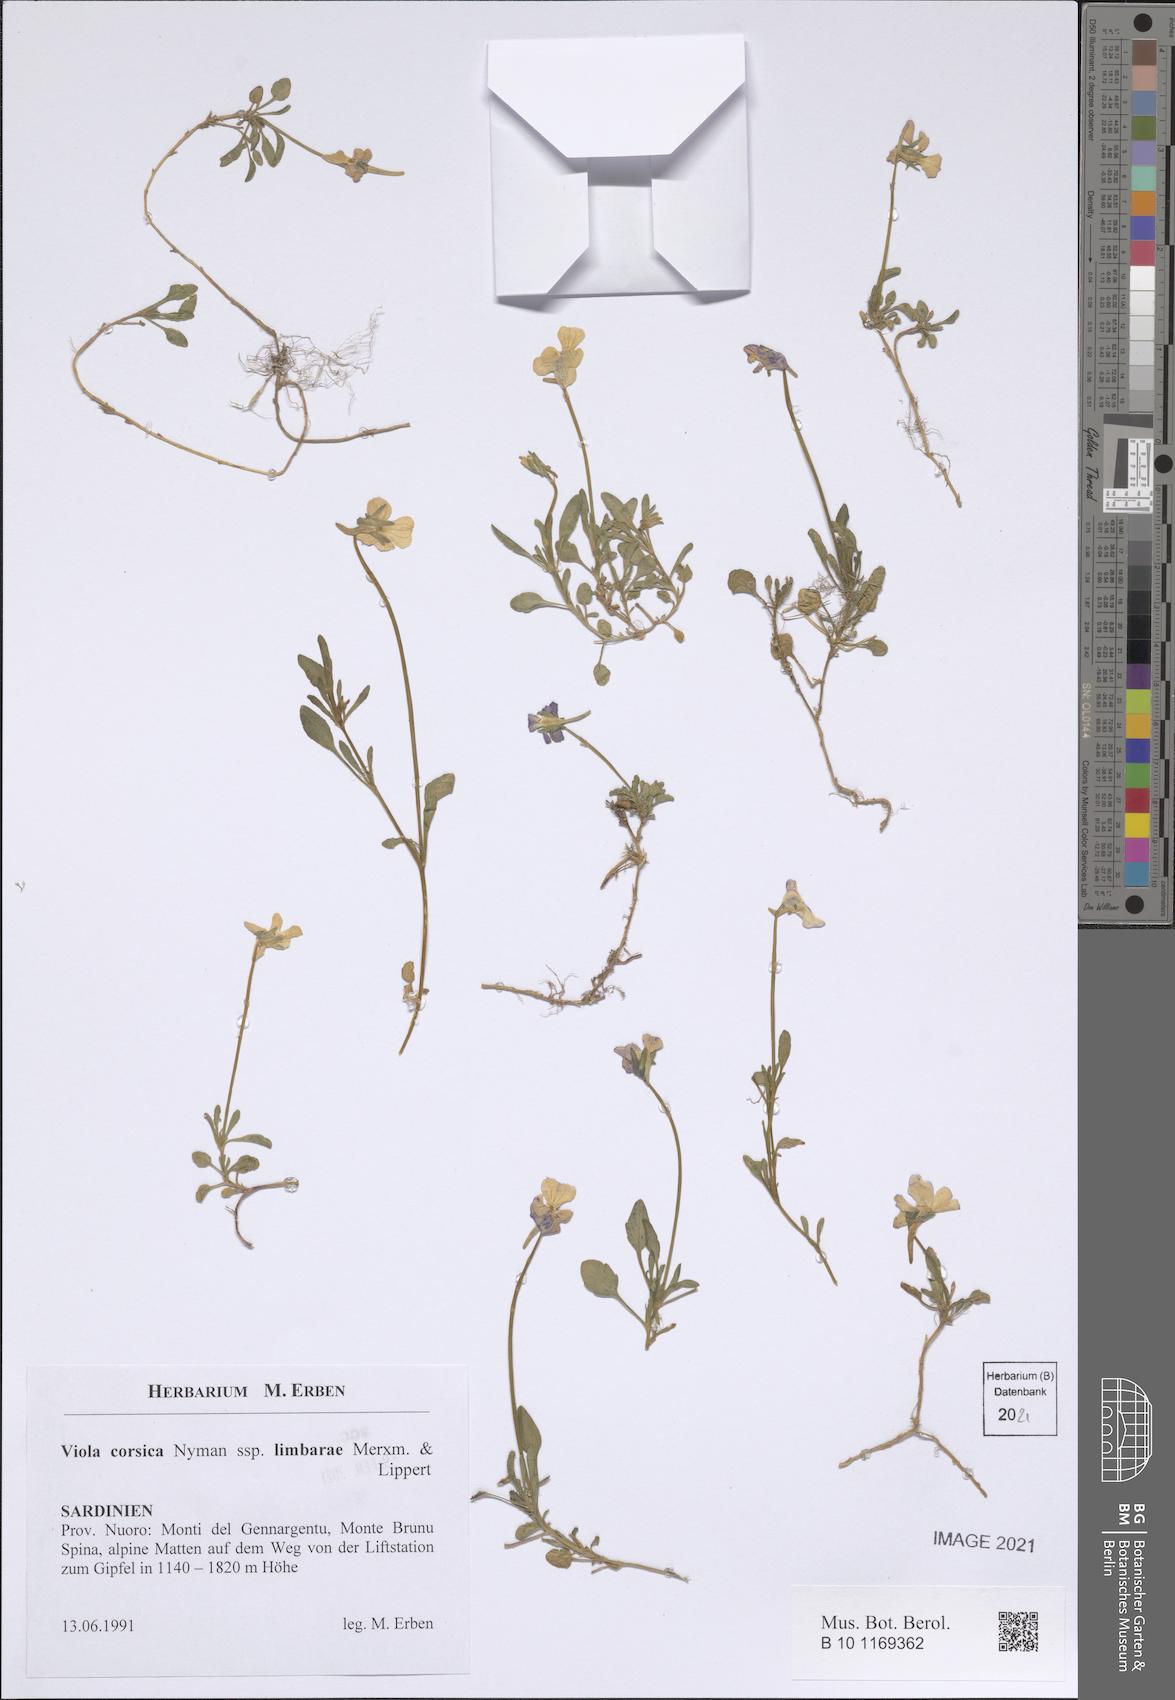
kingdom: Plantae
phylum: Tracheophyta
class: Magnoliopsida
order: Malpighiales
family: Violaceae
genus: Viola
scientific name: Viola corsica
